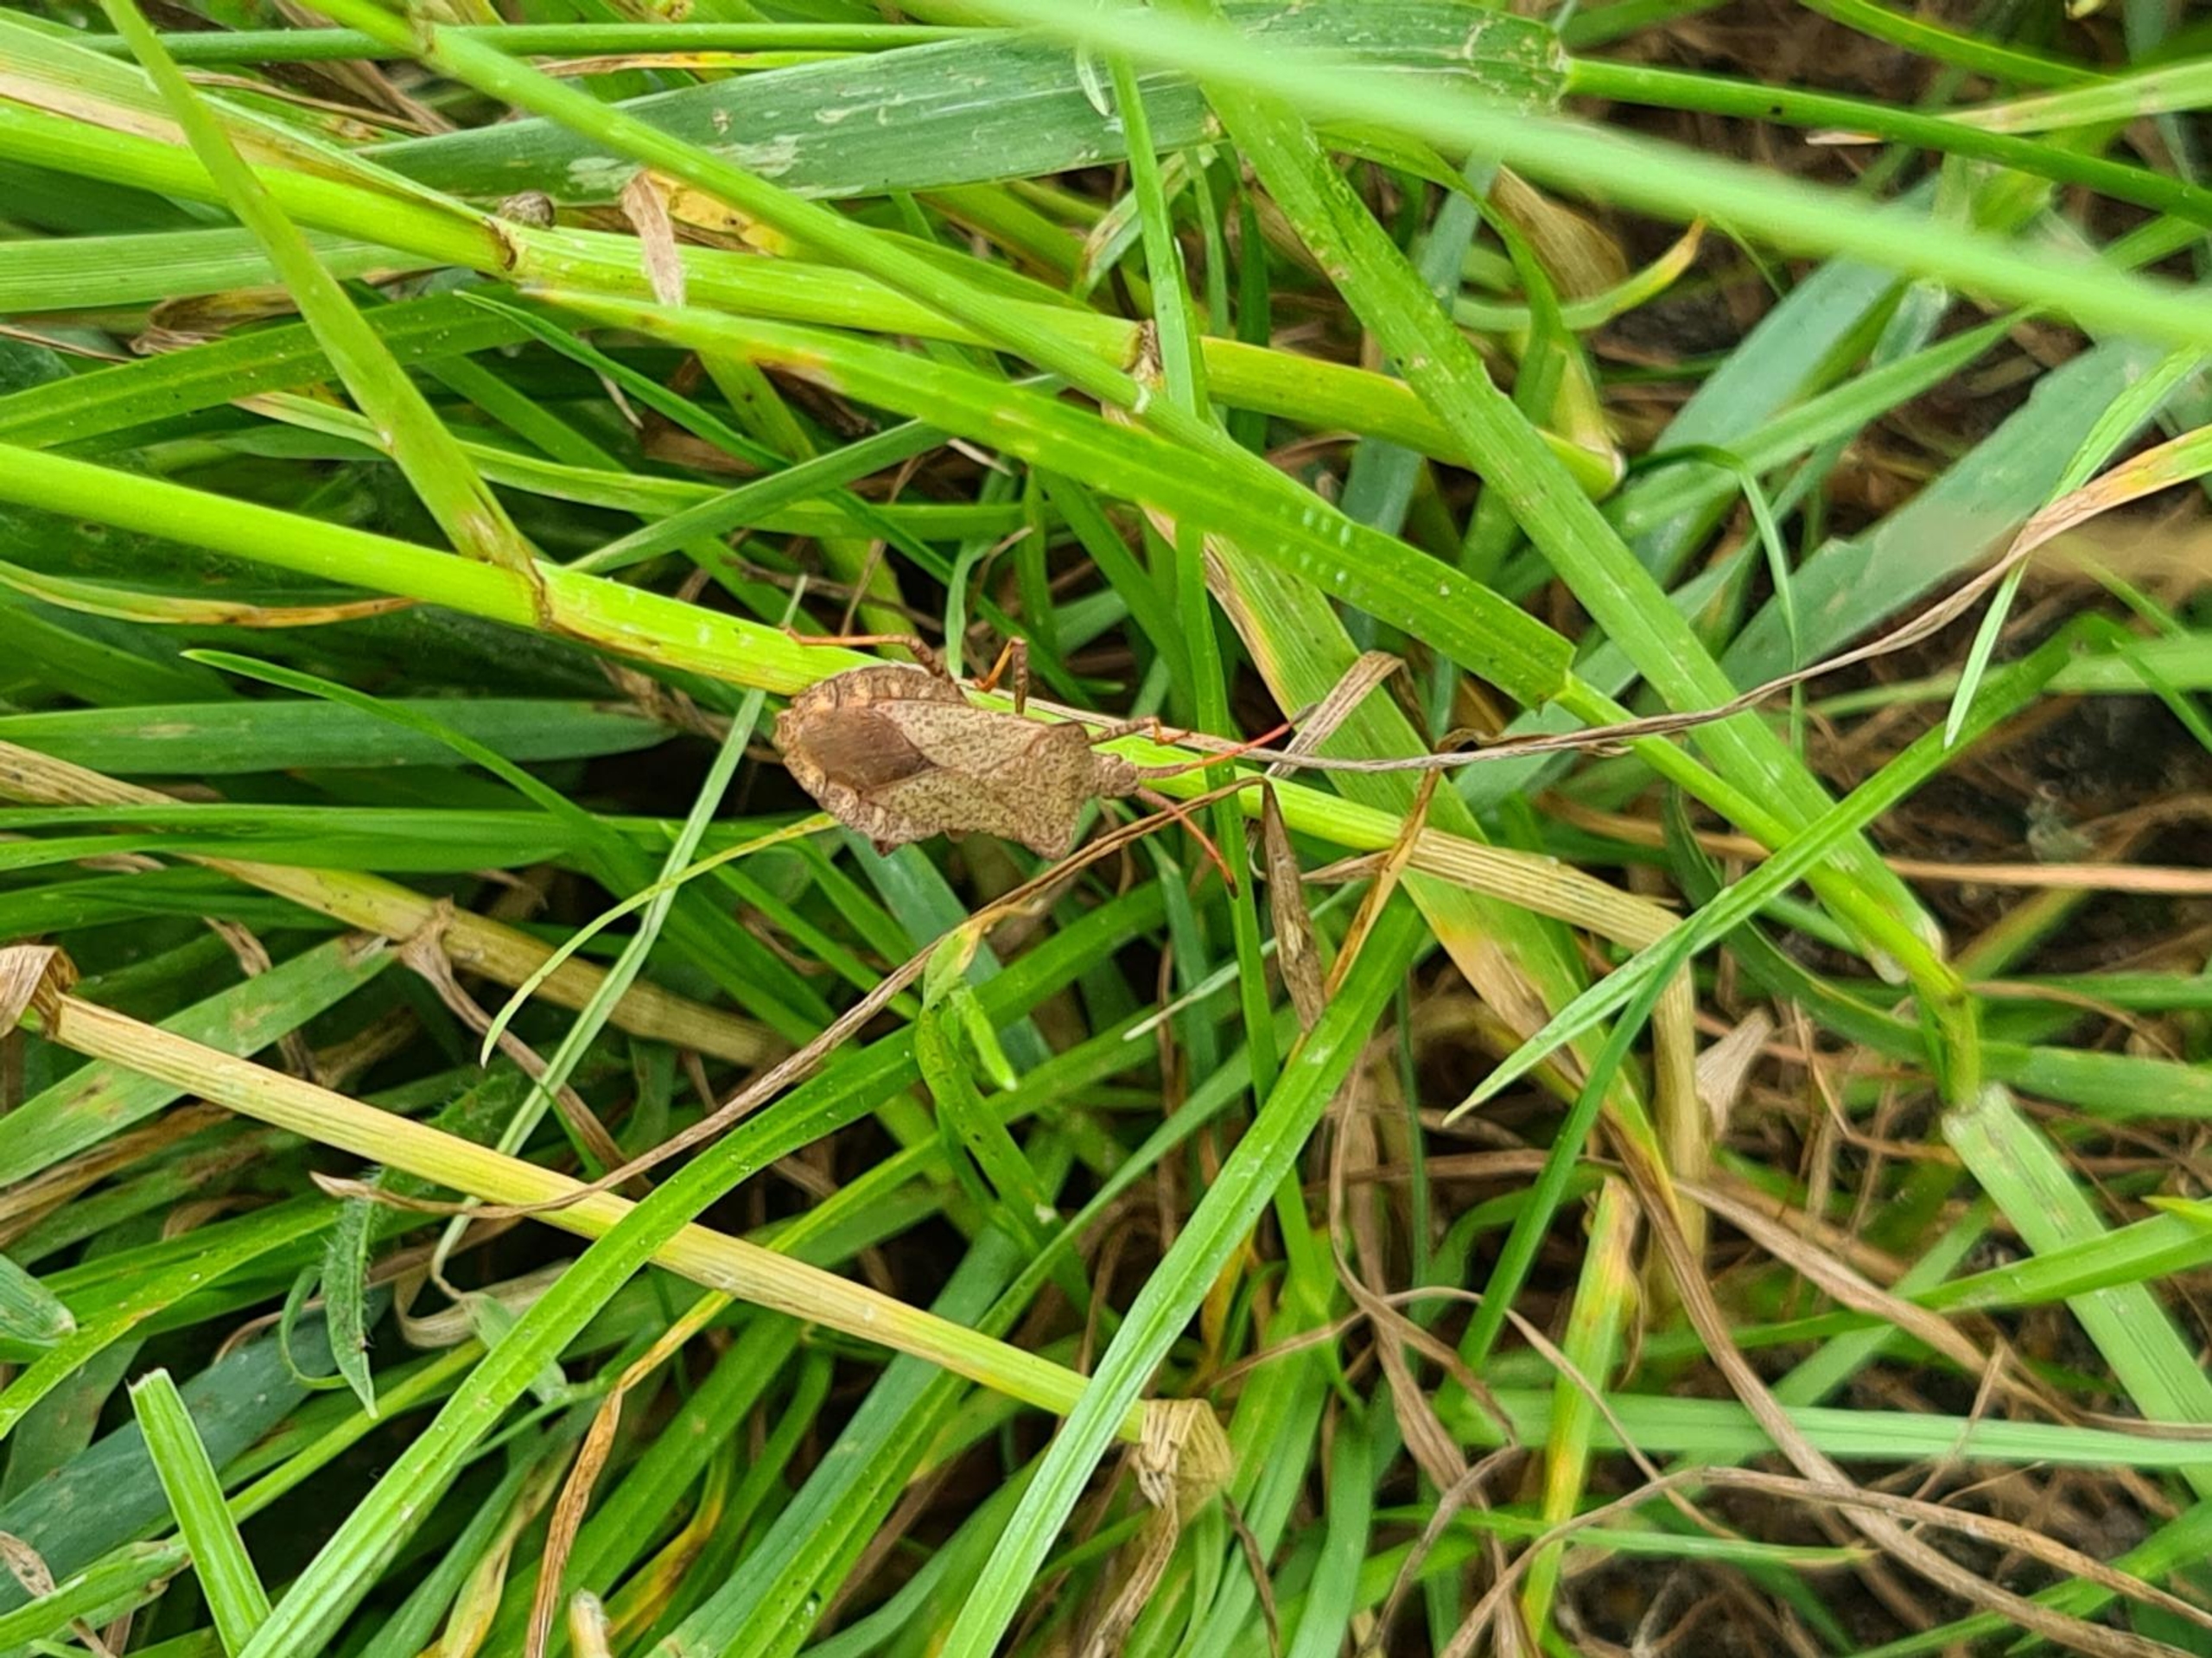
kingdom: Animalia
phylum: Arthropoda
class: Insecta
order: Hemiptera
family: Coreidae
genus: Coreus
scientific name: Coreus marginatus
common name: Skræppetæge
